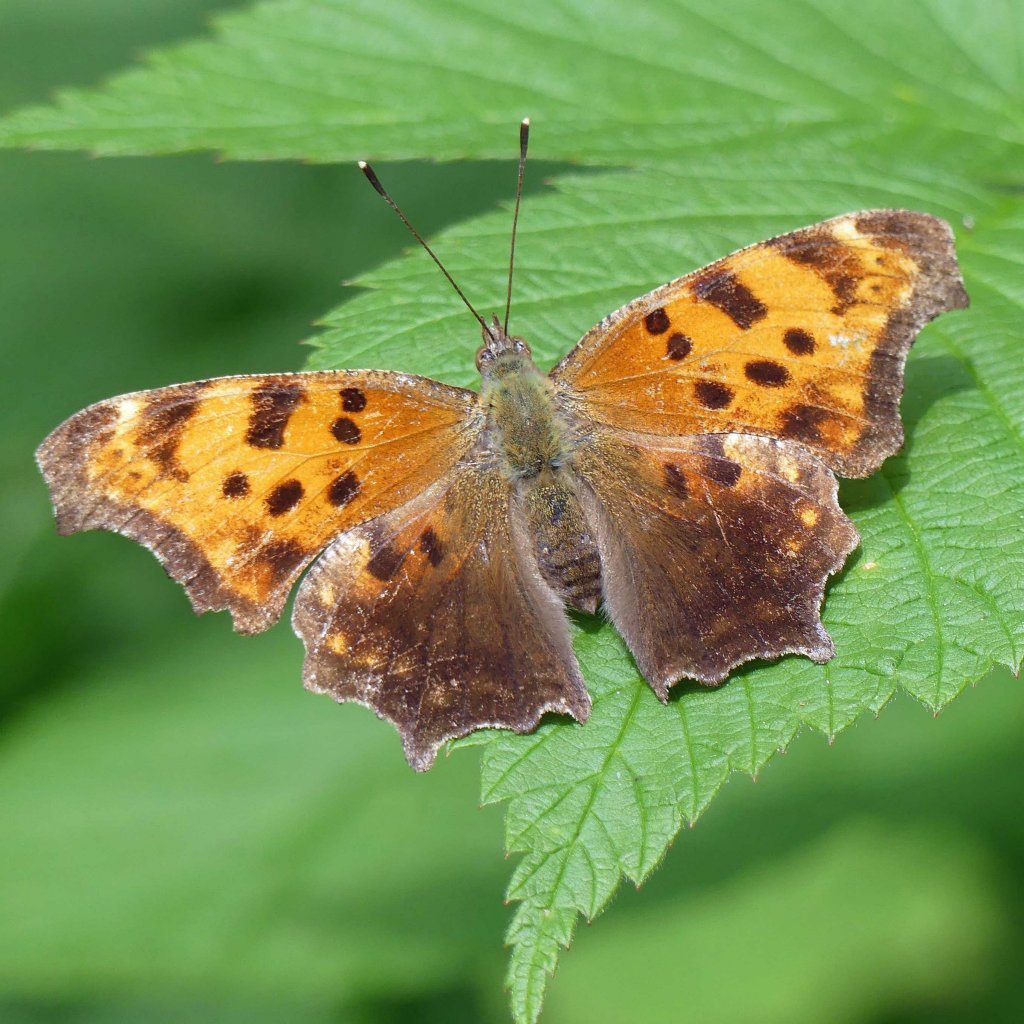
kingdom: Animalia
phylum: Arthropoda
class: Insecta
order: Lepidoptera
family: Nymphalidae
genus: Polygonia
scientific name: Polygonia comma
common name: Eastern Comma
